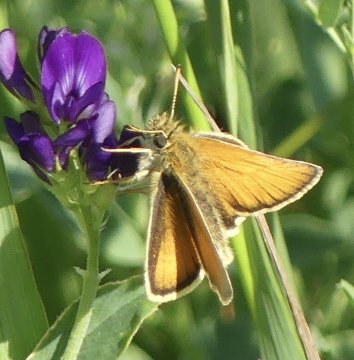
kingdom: Animalia
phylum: Arthropoda
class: Insecta
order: Lepidoptera
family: Hesperiidae
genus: Thymelicus
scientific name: Thymelicus lineola
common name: European Skipper
